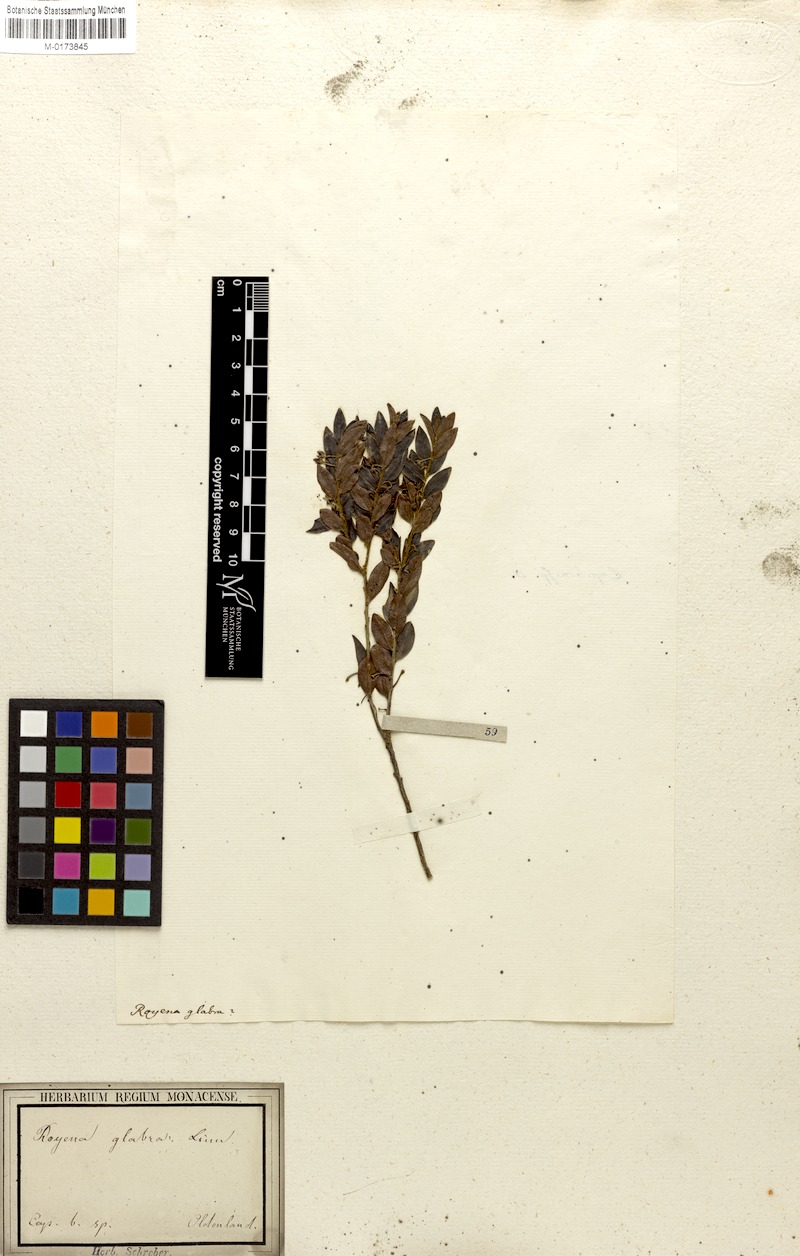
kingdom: Plantae
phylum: Tracheophyta
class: Magnoliopsida
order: Ericales
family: Ebenaceae
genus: Diospyros
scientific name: Diospyros glabra
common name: Fynbos star apple
